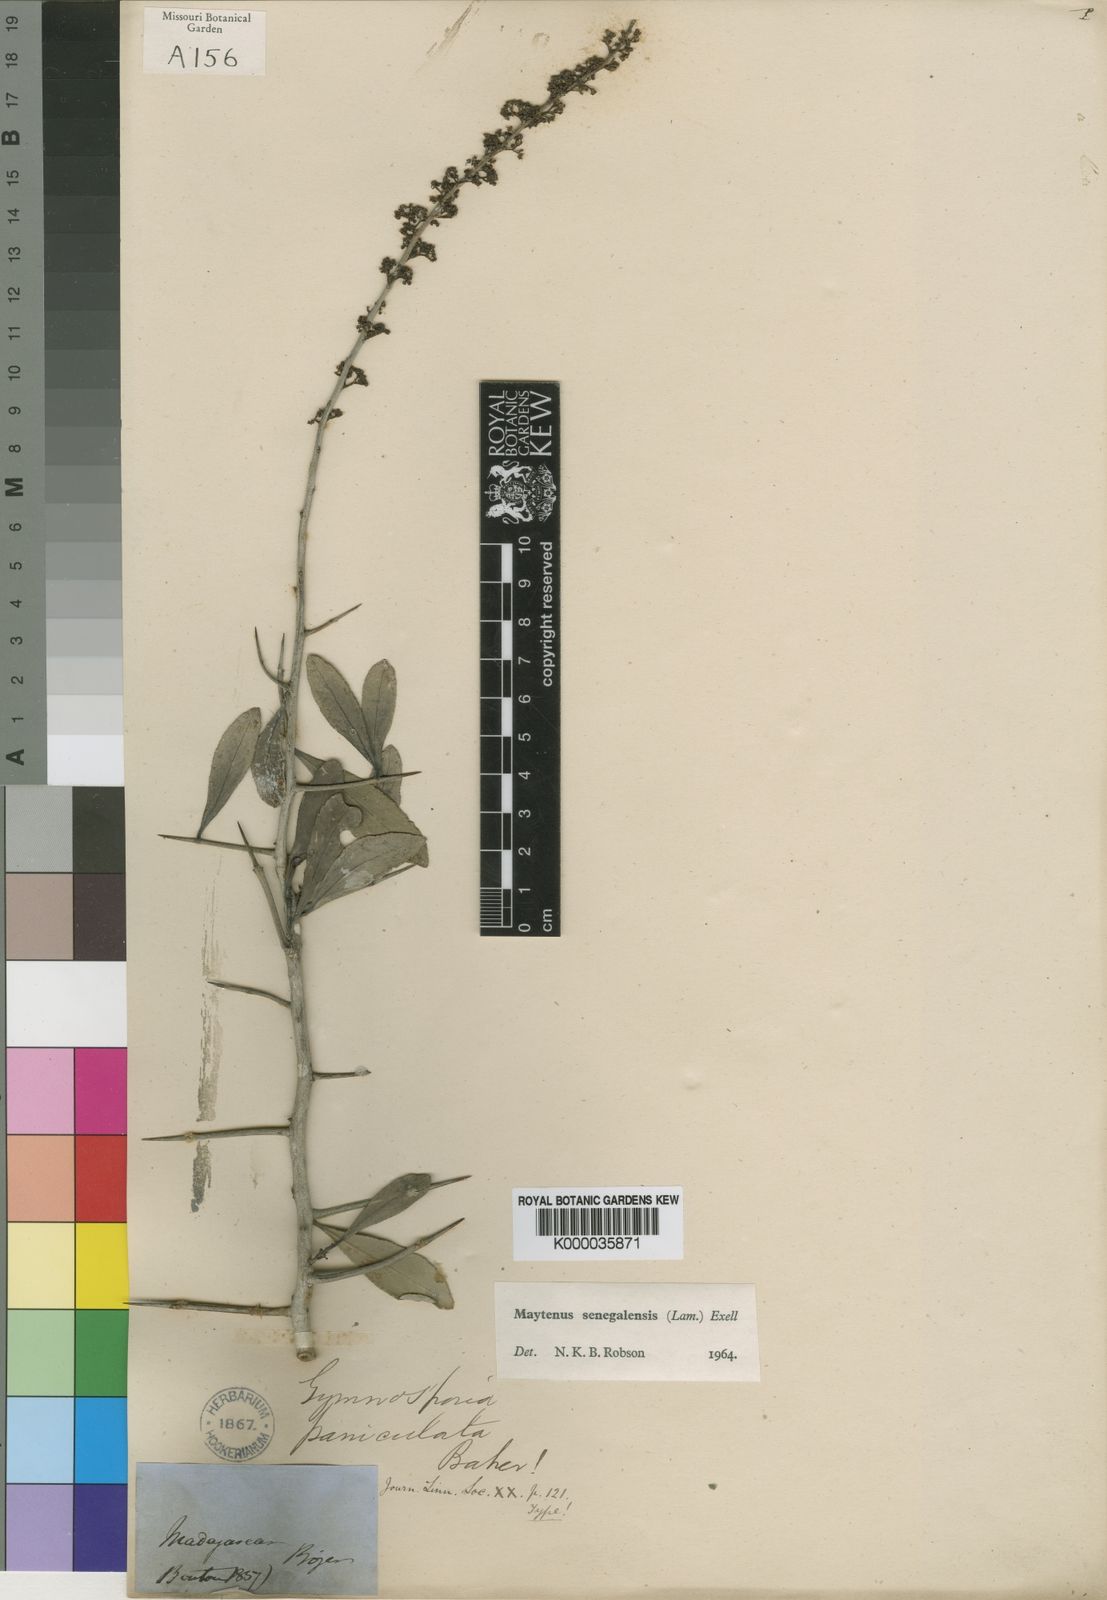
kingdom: Plantae
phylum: Tracheophyta
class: Magnoliopsida
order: Celastrales
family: Celastraceae
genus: Gymnosporia
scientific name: Gymnosporia senegalensis
